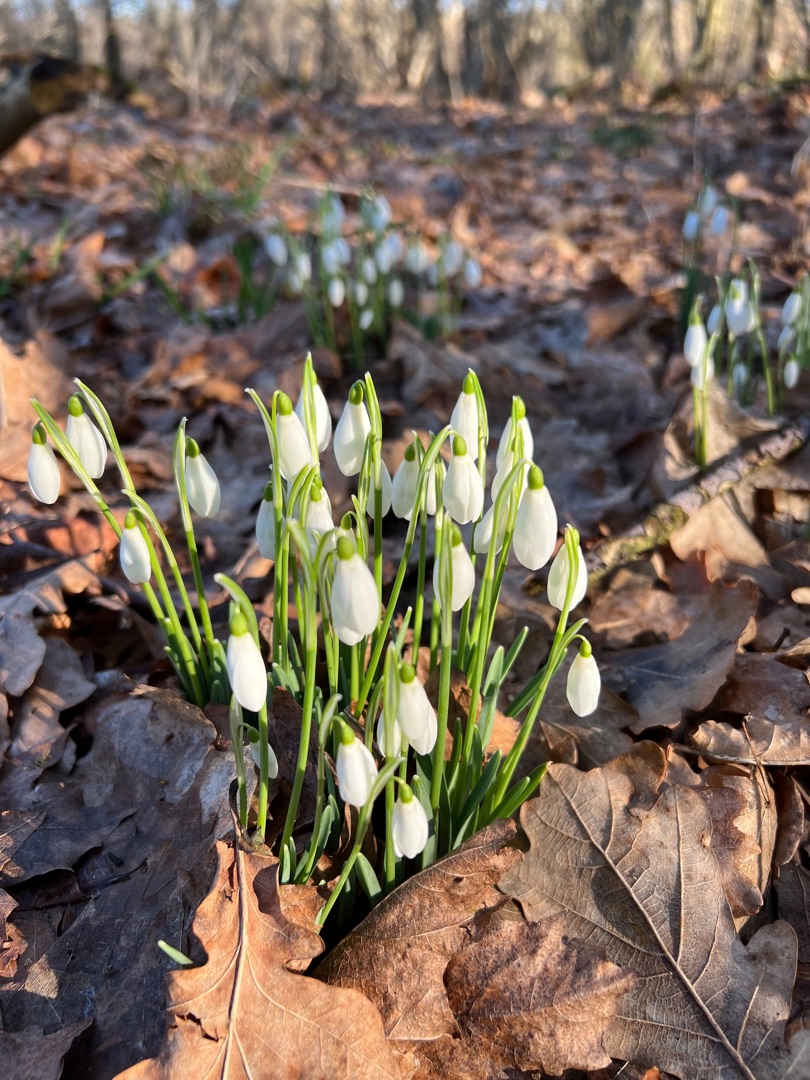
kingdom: Plantae
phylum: Tracheophyta
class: Liliopsida
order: Asparagales
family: Amaryllidaceae
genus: Galanthus
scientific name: Galanthus nivalis
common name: Vintergæk
